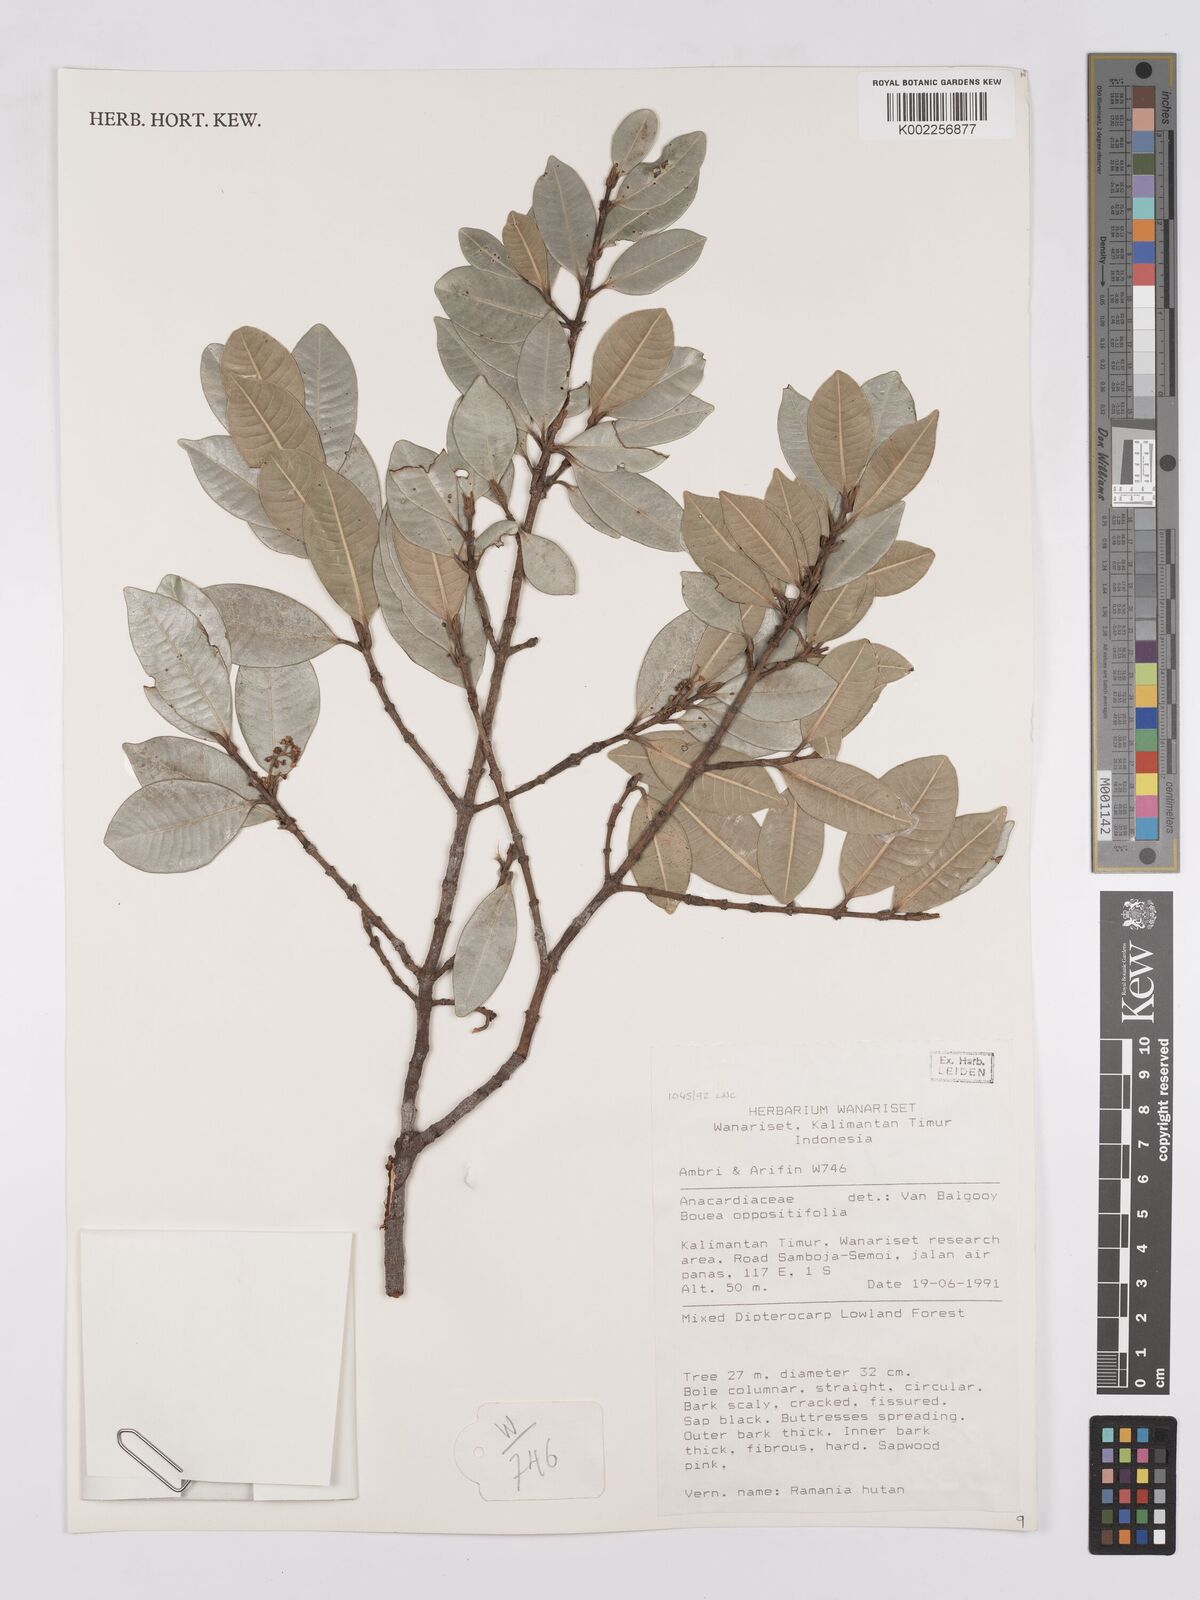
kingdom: Plantae
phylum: Tracheophyta
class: Magnoliopsida
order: Sapindales
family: Anacardiaceae
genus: Bouea
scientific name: Bouea oppositifolia
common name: Narrow-leaved kundang
